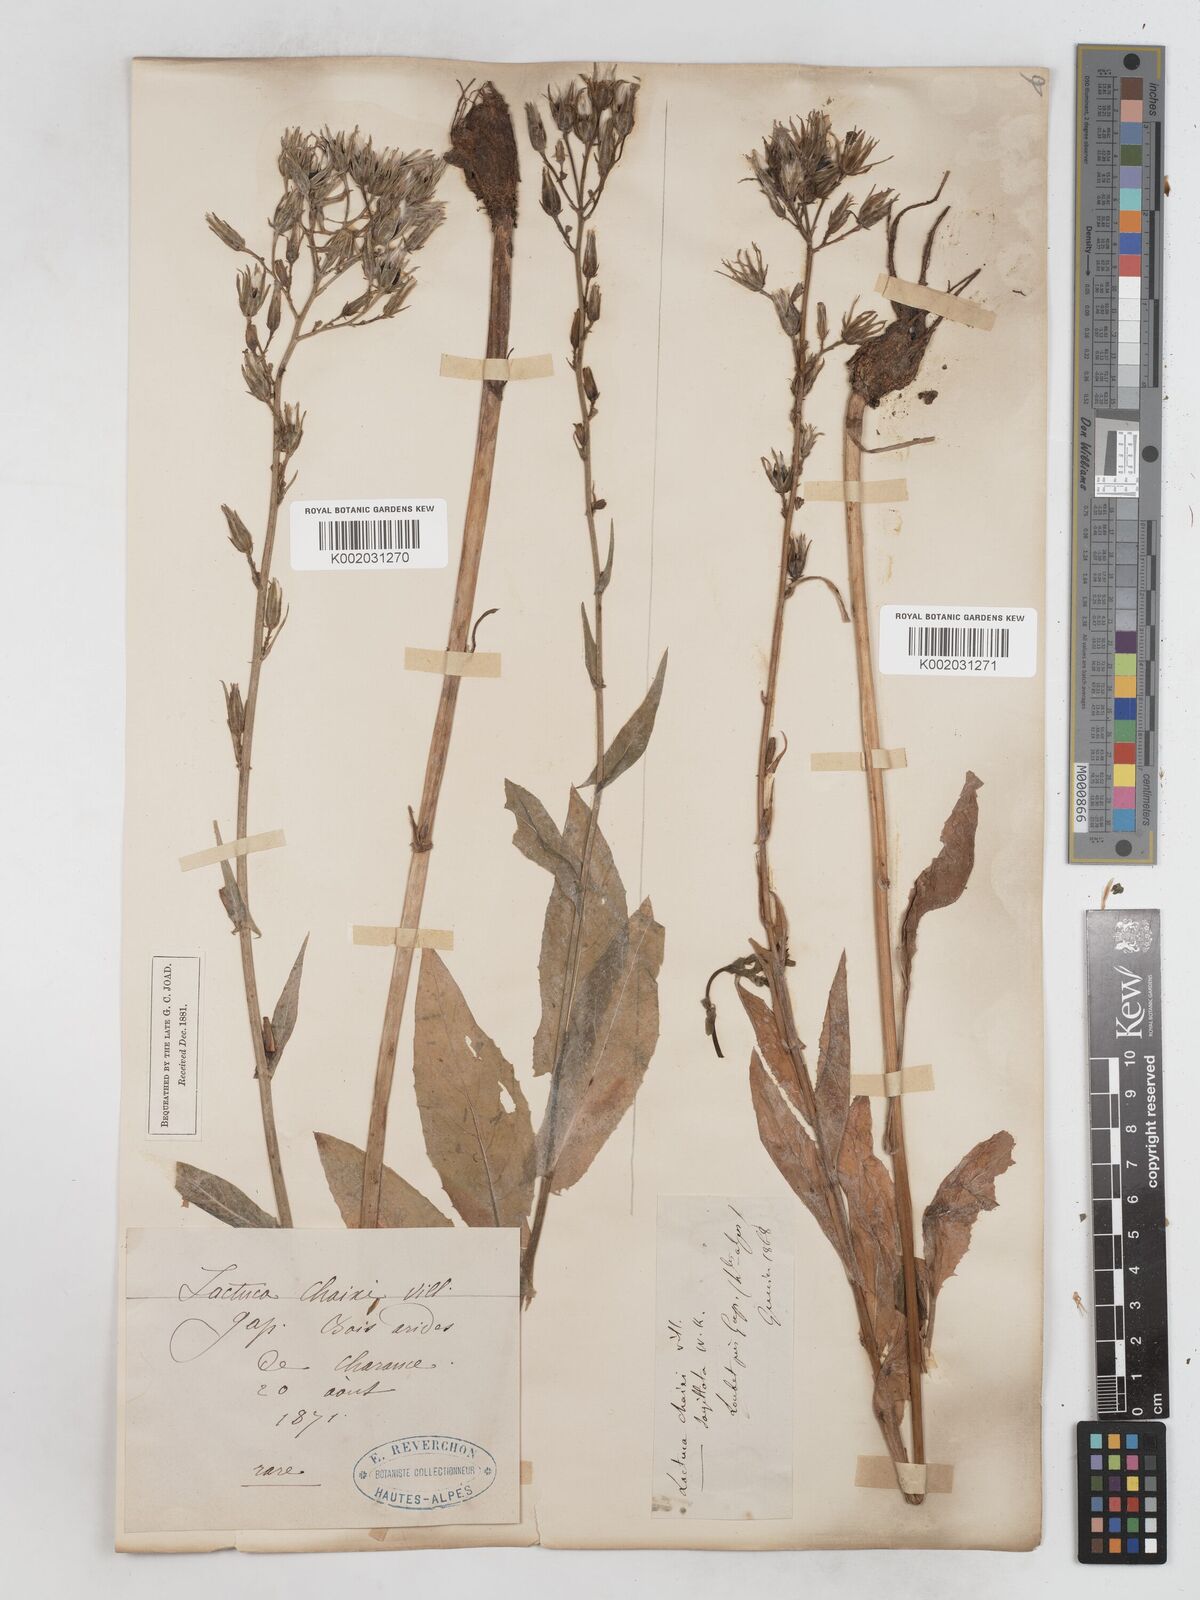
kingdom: Plantae
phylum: Tracheophyta
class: Magnoliopsida
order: Asterales
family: Asteraceae
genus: Lactuca
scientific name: Lactuca quercina
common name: Wild lettuce
